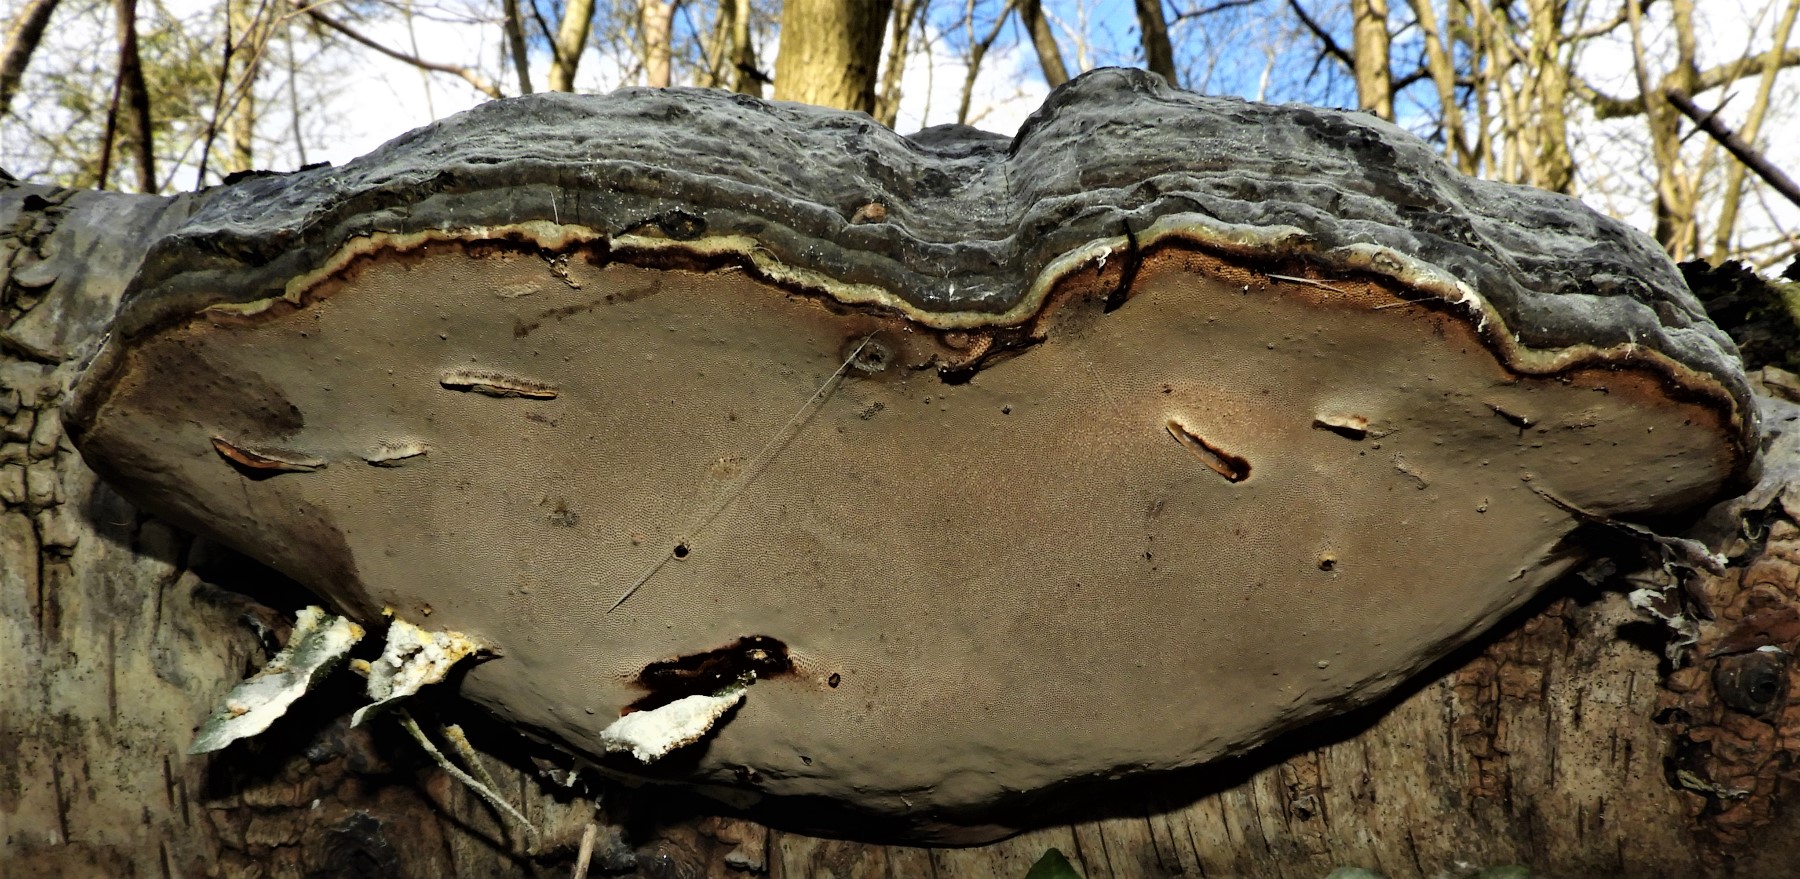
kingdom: Fungi
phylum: Basidiomycota
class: Agaricomycetes
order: Polyporales
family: Polyporaceae
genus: Fomes
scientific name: Fomes fomentarius
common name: tøndersvamp
